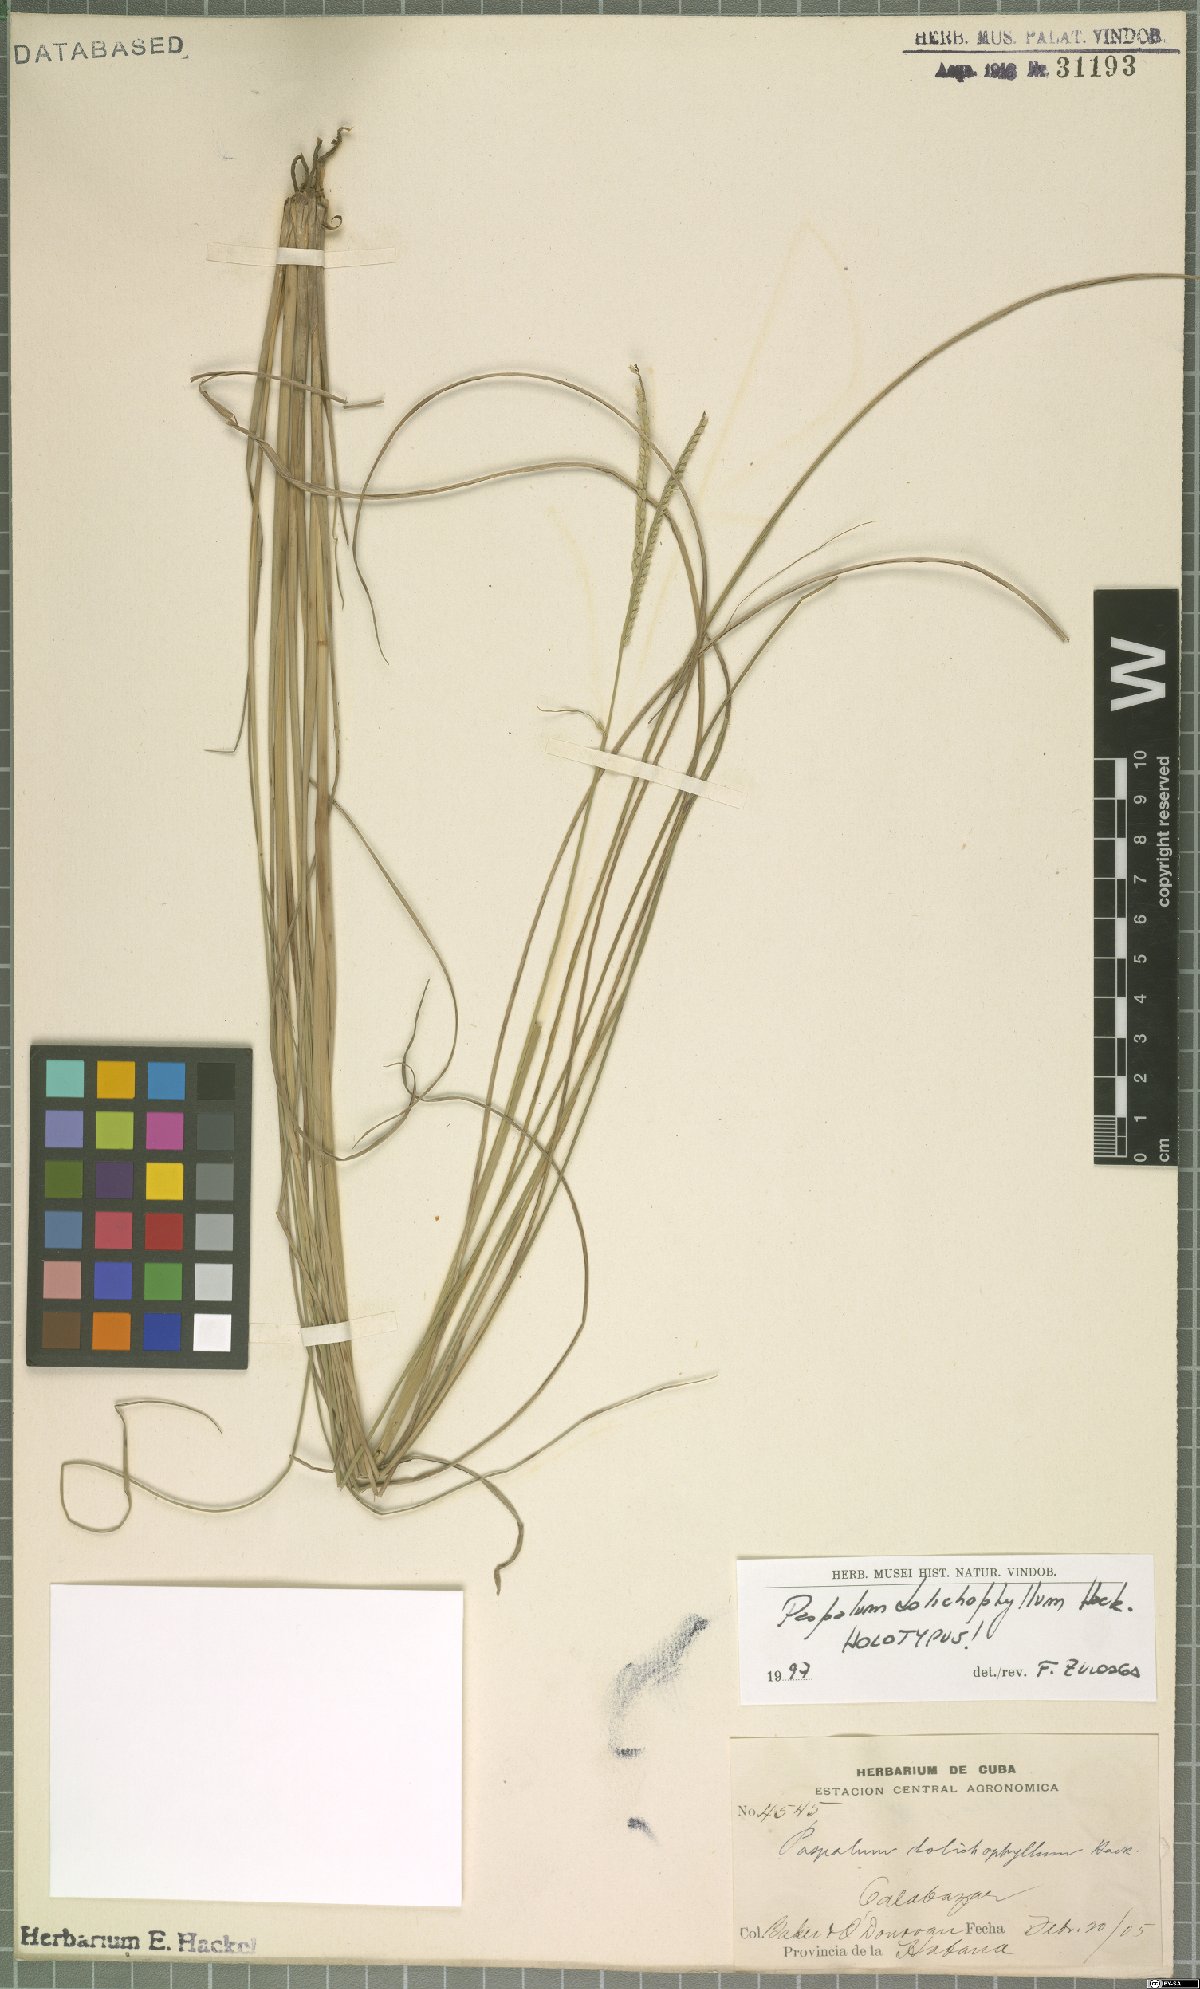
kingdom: Plantae
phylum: Tracheophyta
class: Liliopsida
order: Poales
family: Poaceae
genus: Paspalum
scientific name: Paspalum alterniflorum
